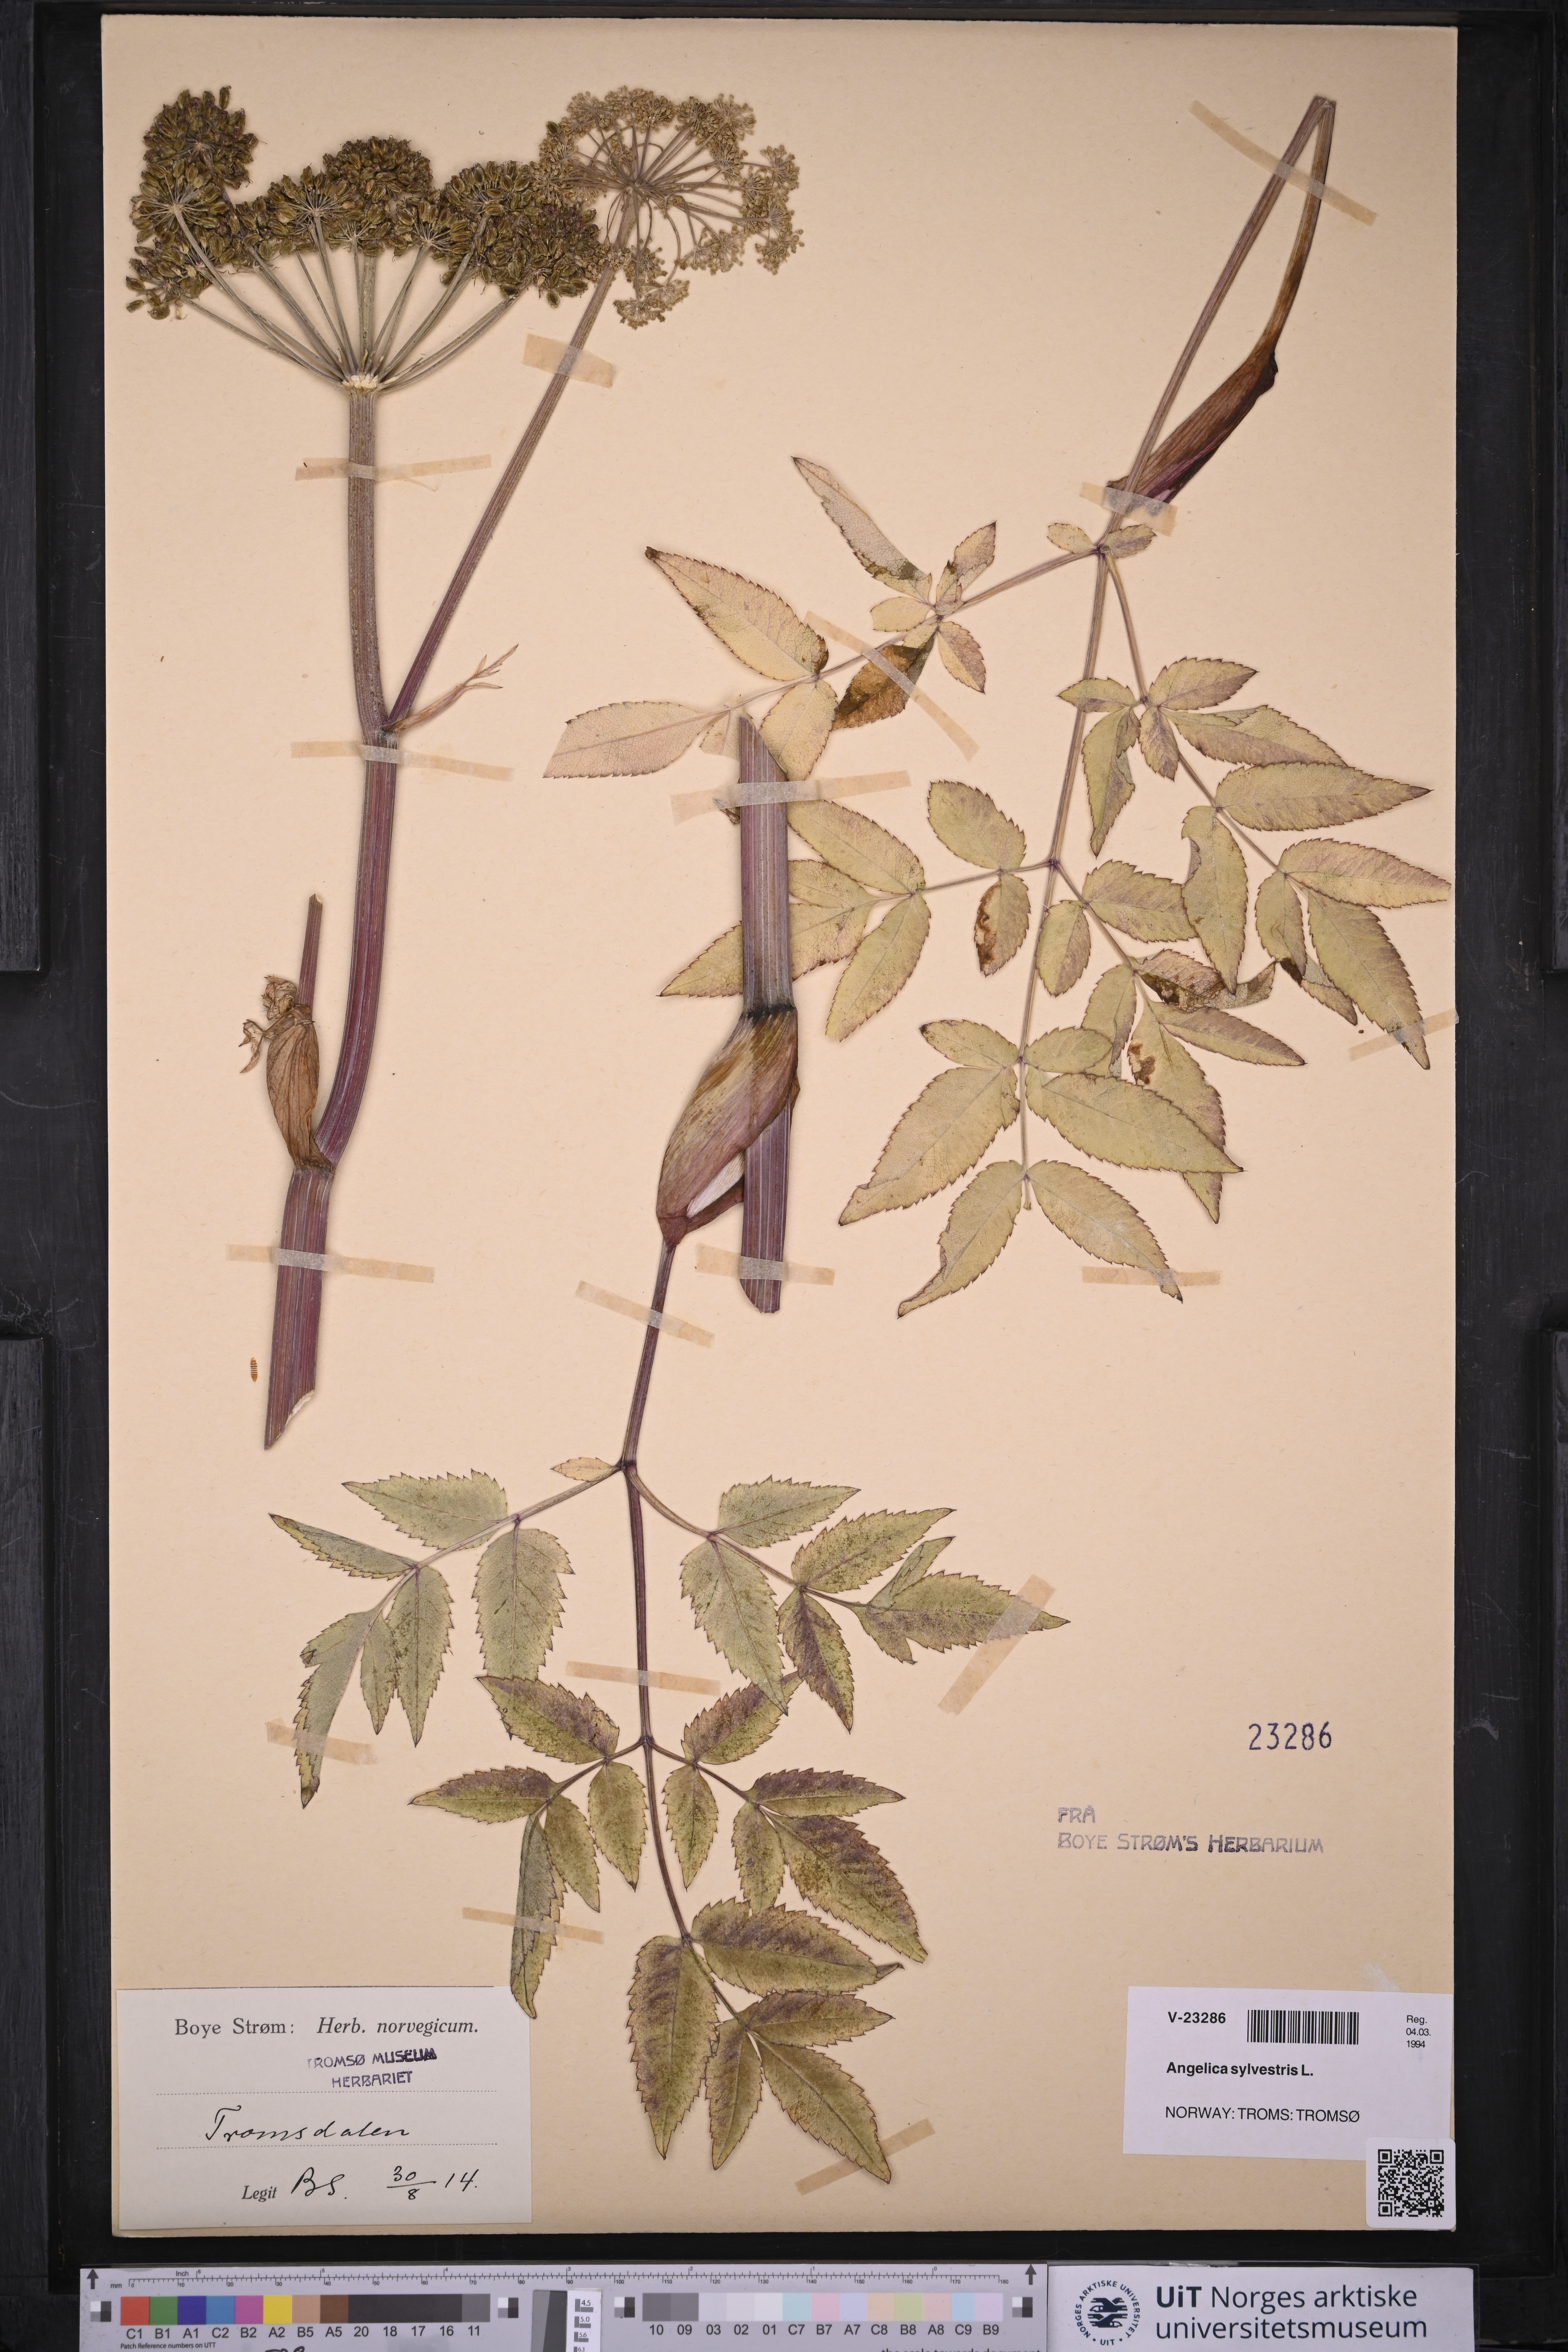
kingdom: Plantae
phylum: Tracheophyta
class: Magnoliopsida
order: Apiales
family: Apiaceae
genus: Angelica
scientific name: Angelica sylvestris
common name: Wild angelica
